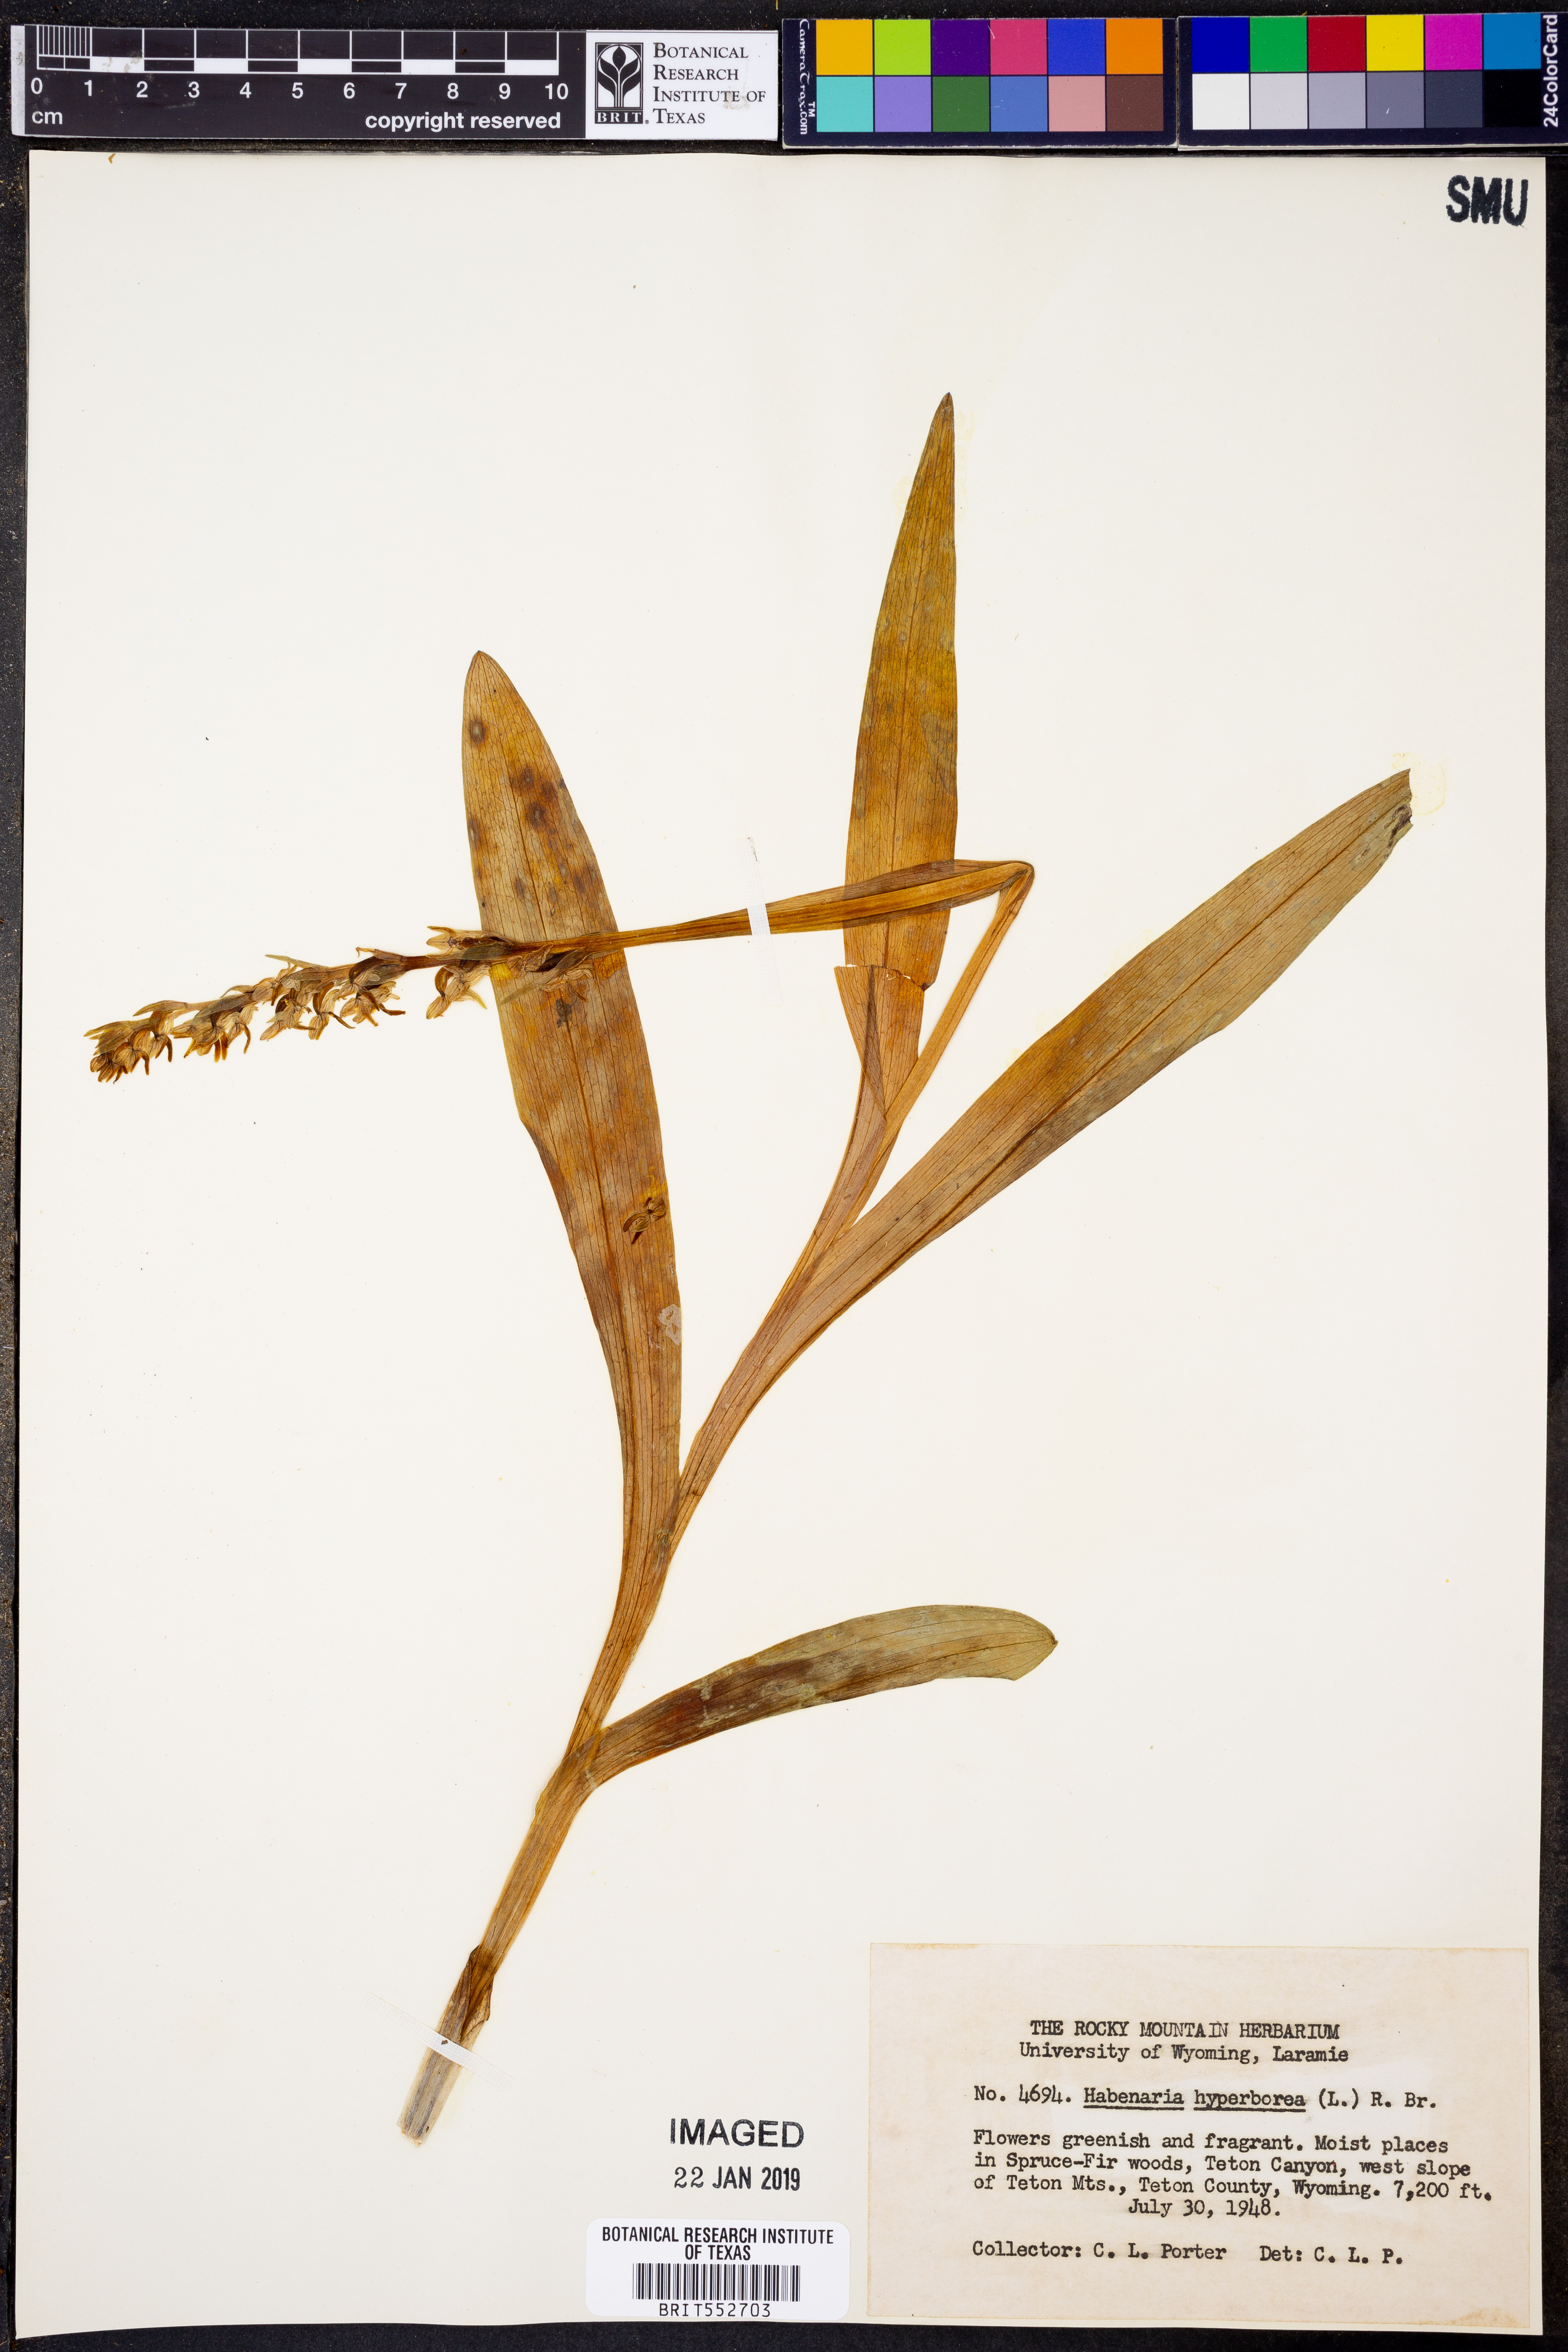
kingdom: Plantae
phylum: Tracheophyta
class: Liliopsida
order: Asparagales
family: Orchidaceae
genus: Platanthera
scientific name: Platanthera hyperborea
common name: Northern green orchid
